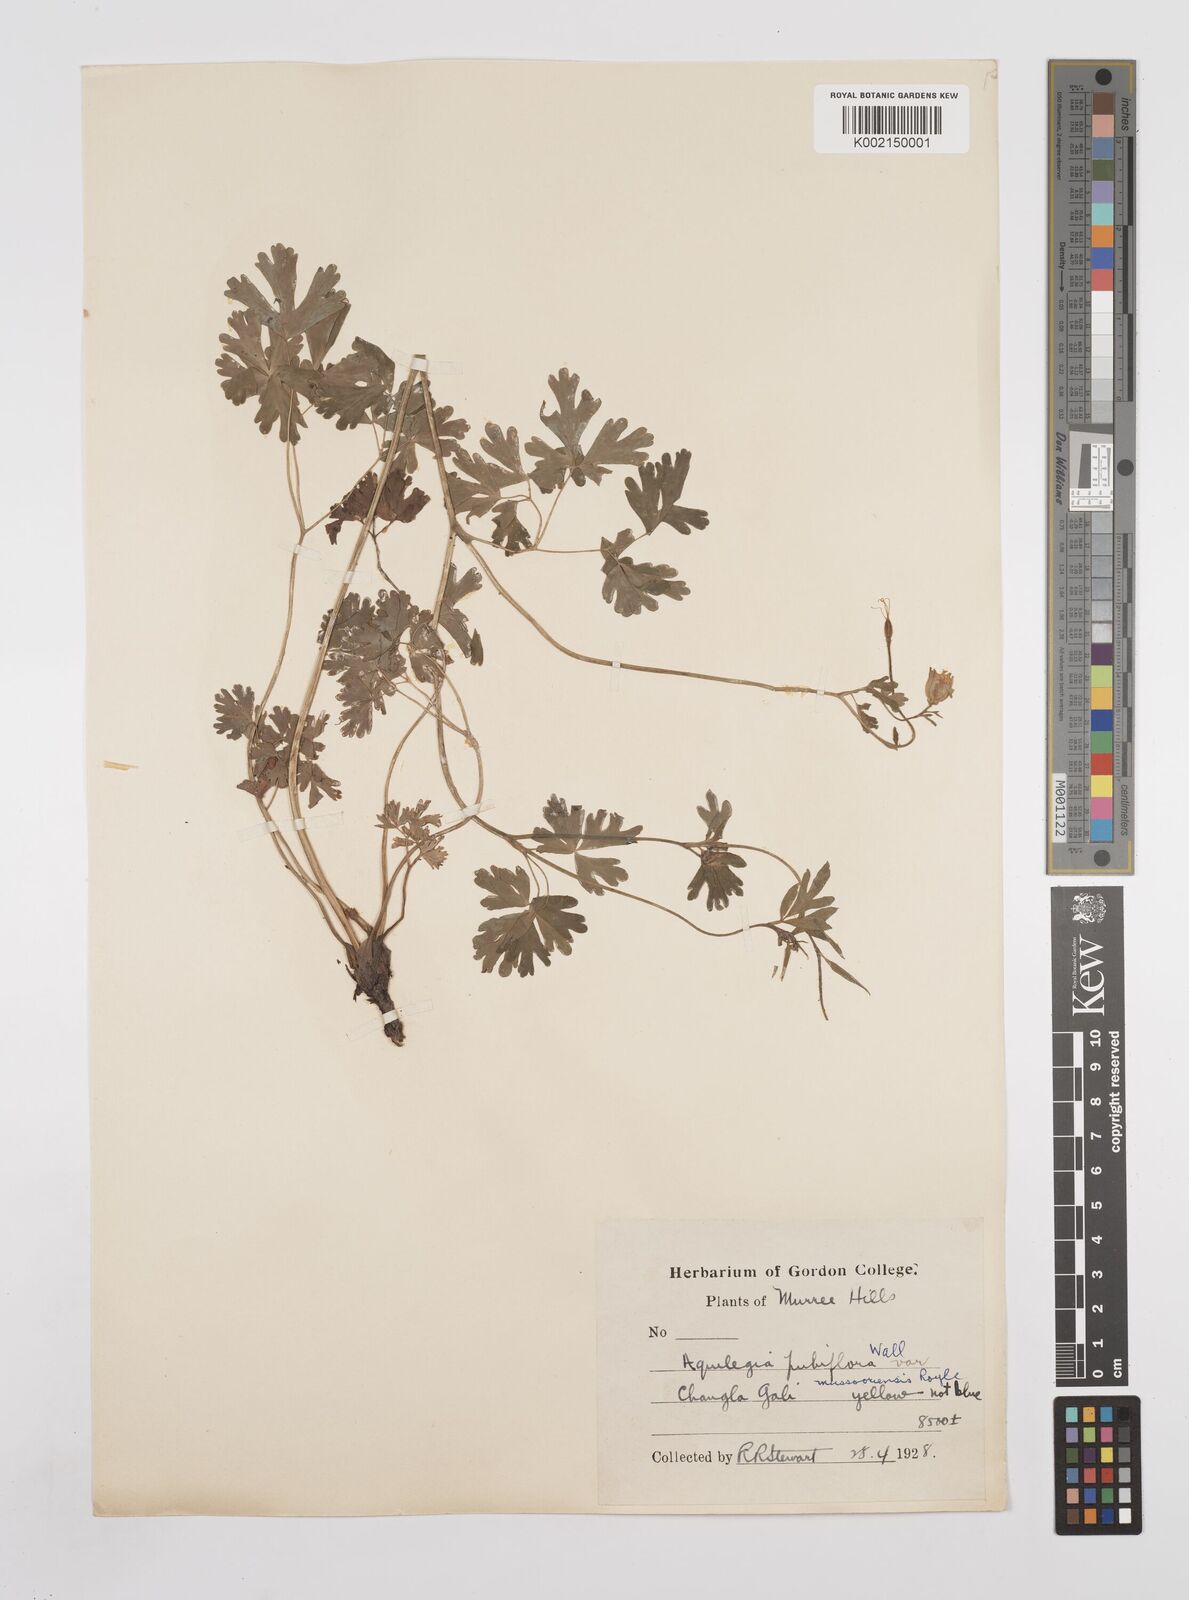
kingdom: Plantae
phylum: Tracheophyta
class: Magnoliopsida
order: Ranunculales
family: Ranunculaceae
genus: Aquilegia
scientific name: Aquilegia pubiflora
